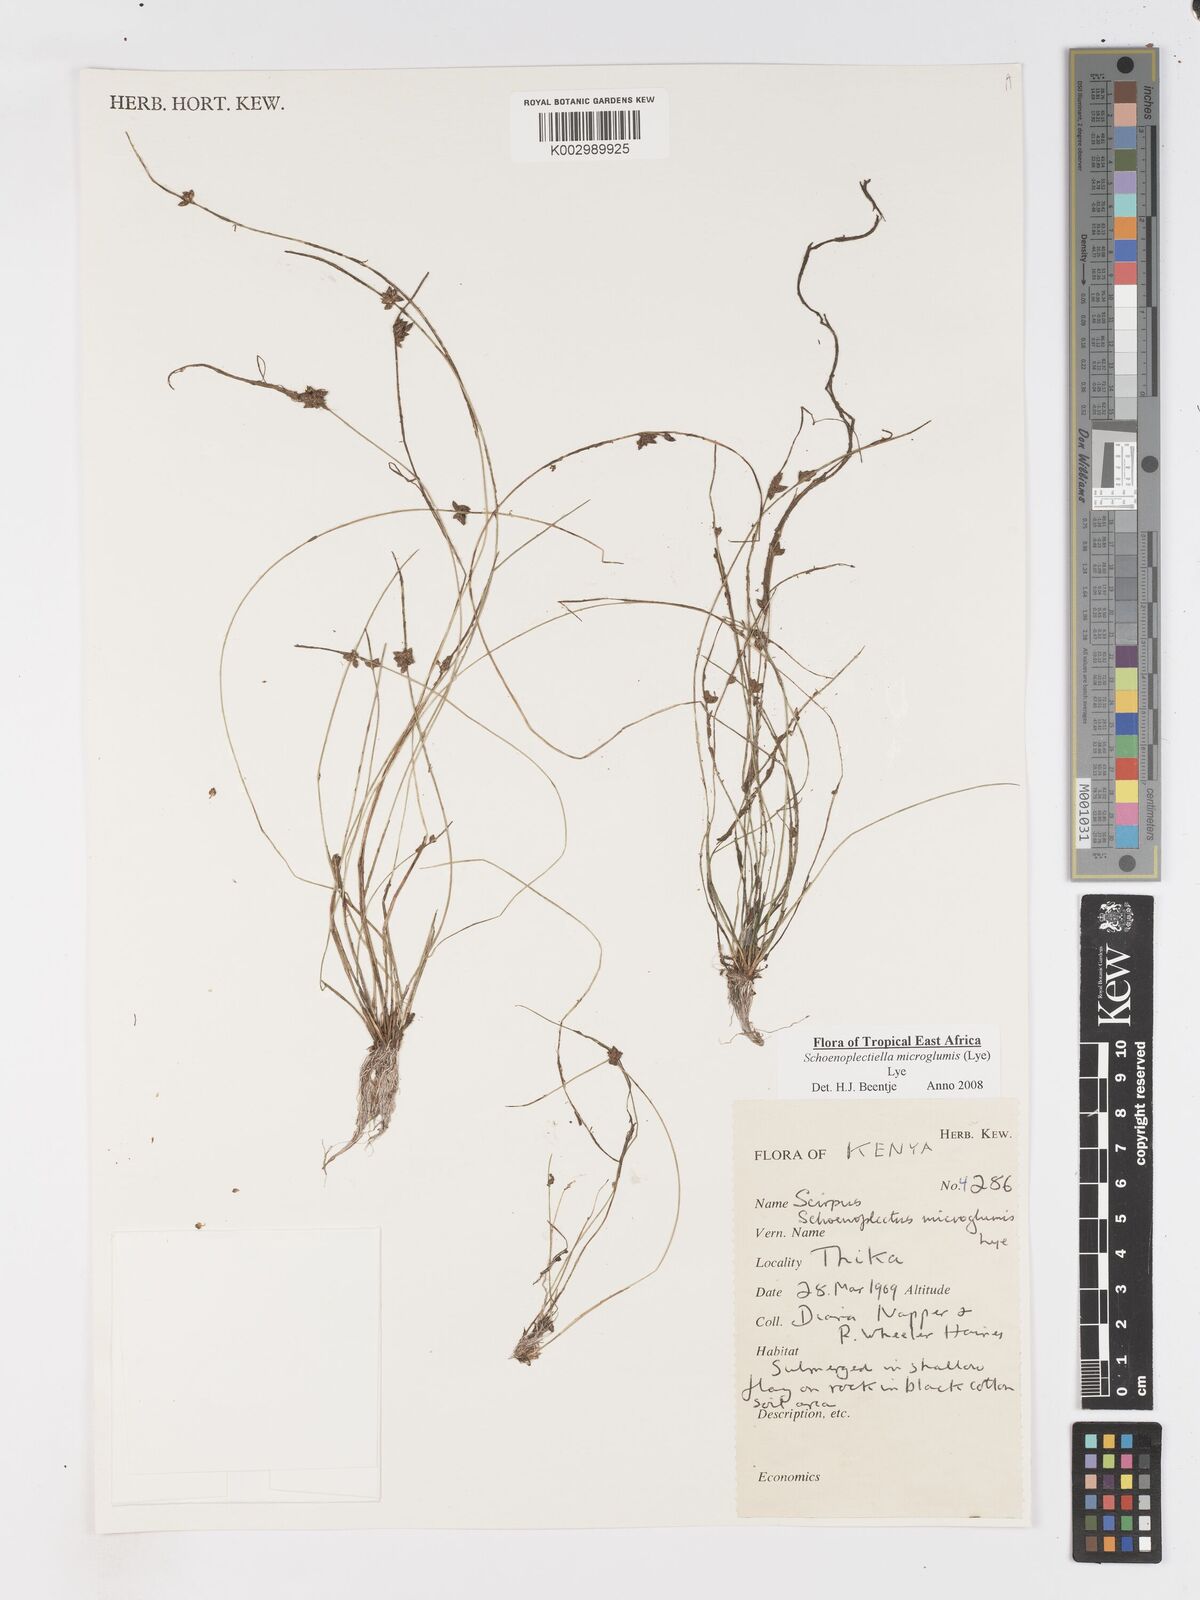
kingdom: Plantae
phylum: Tracheophyta
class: Liliopsida
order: Poales
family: Cyperaceae
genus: Schoenoplectiella
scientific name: Schoenoplectiella microglumis
